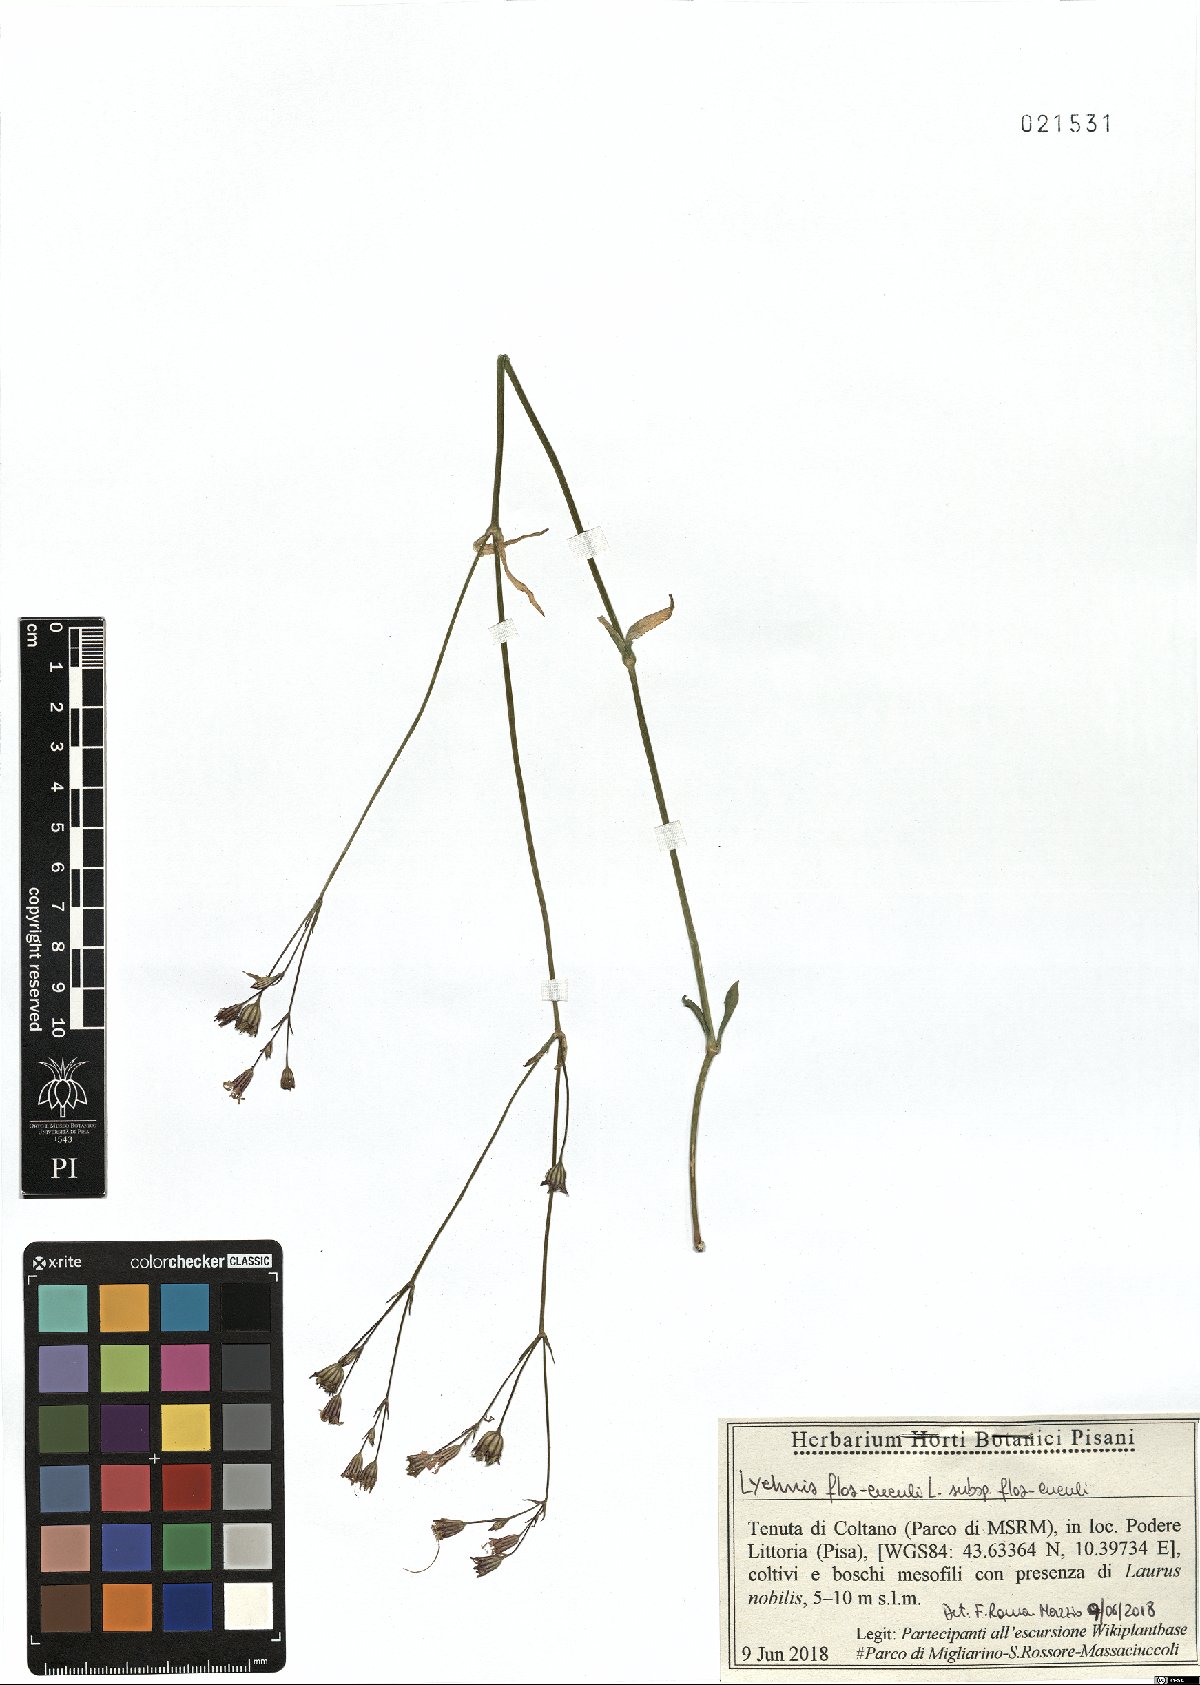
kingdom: Plantae
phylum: Tracheophyta
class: Magnoliopsida
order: Caryophyllales
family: Caryophyllaceae
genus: Silene
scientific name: Silene flos-cuculi
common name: Ragged-robin
